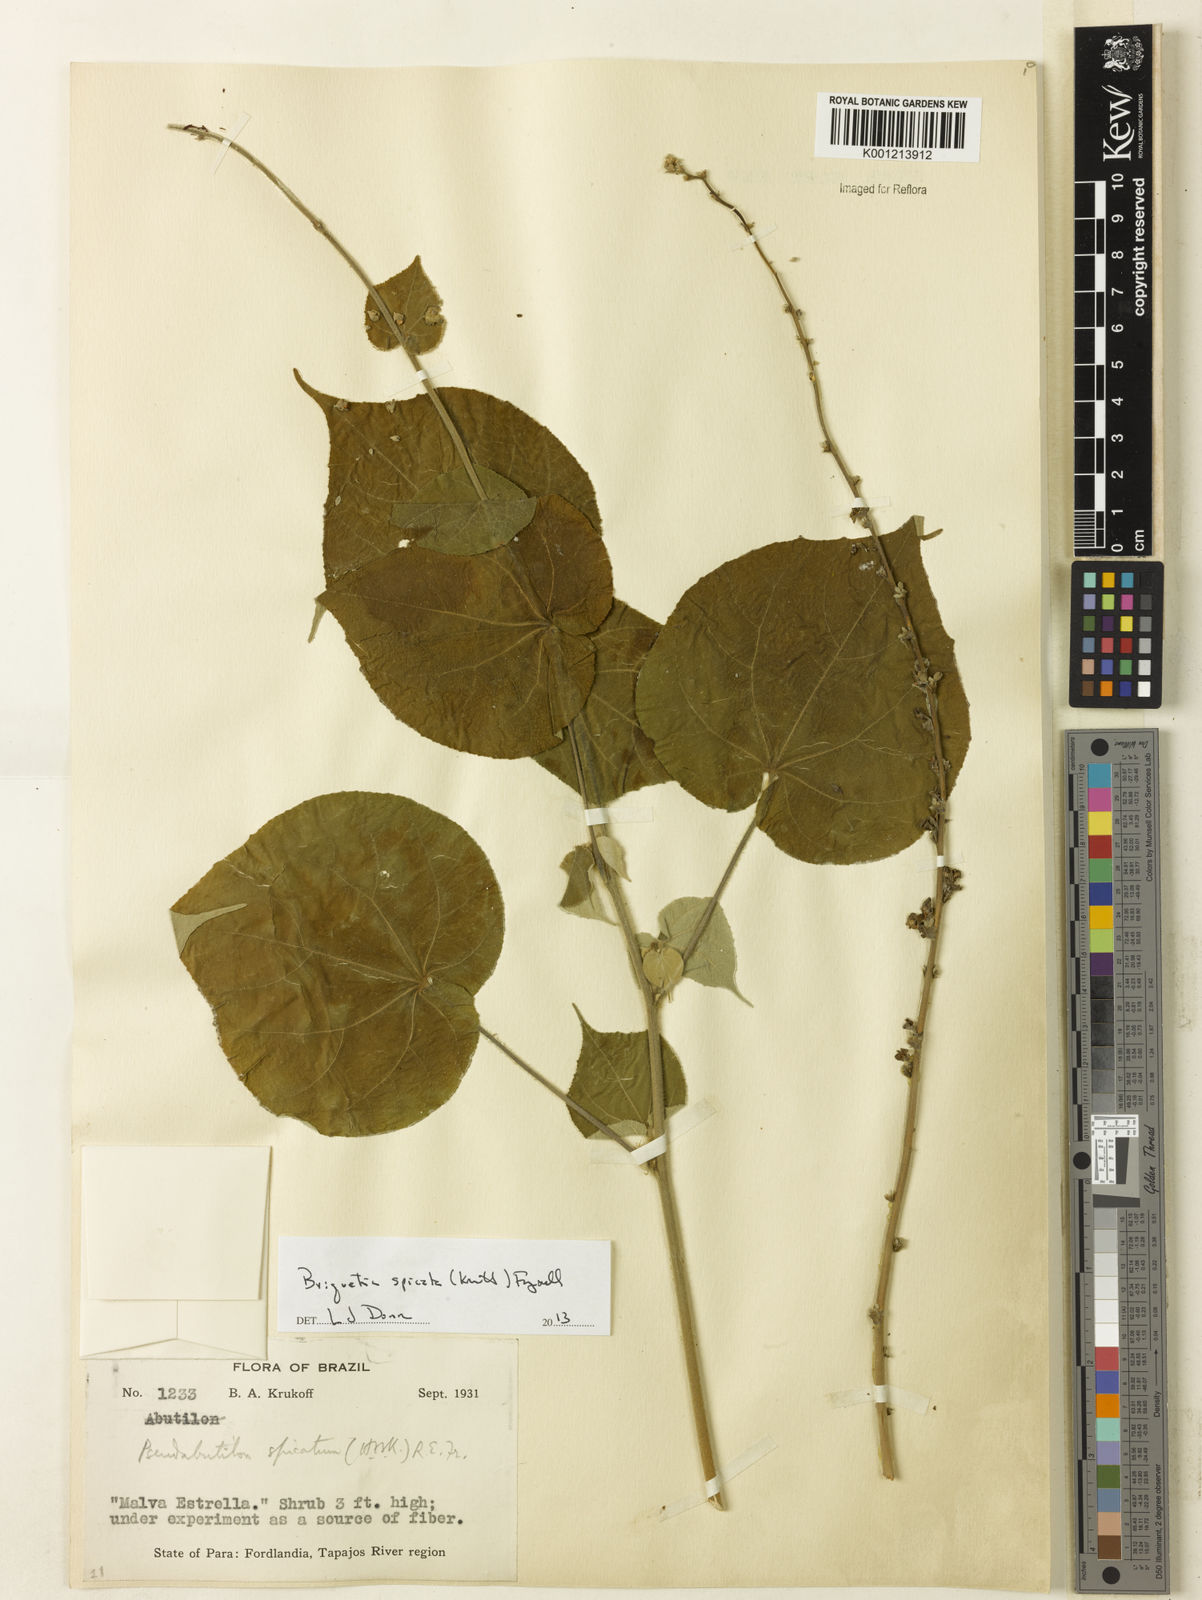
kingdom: Plantae
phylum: Tracheophyta
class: Magnoliopsida
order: Malvales
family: Malvaceae
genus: Allobriquetia
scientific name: Allobriquetia spicata
